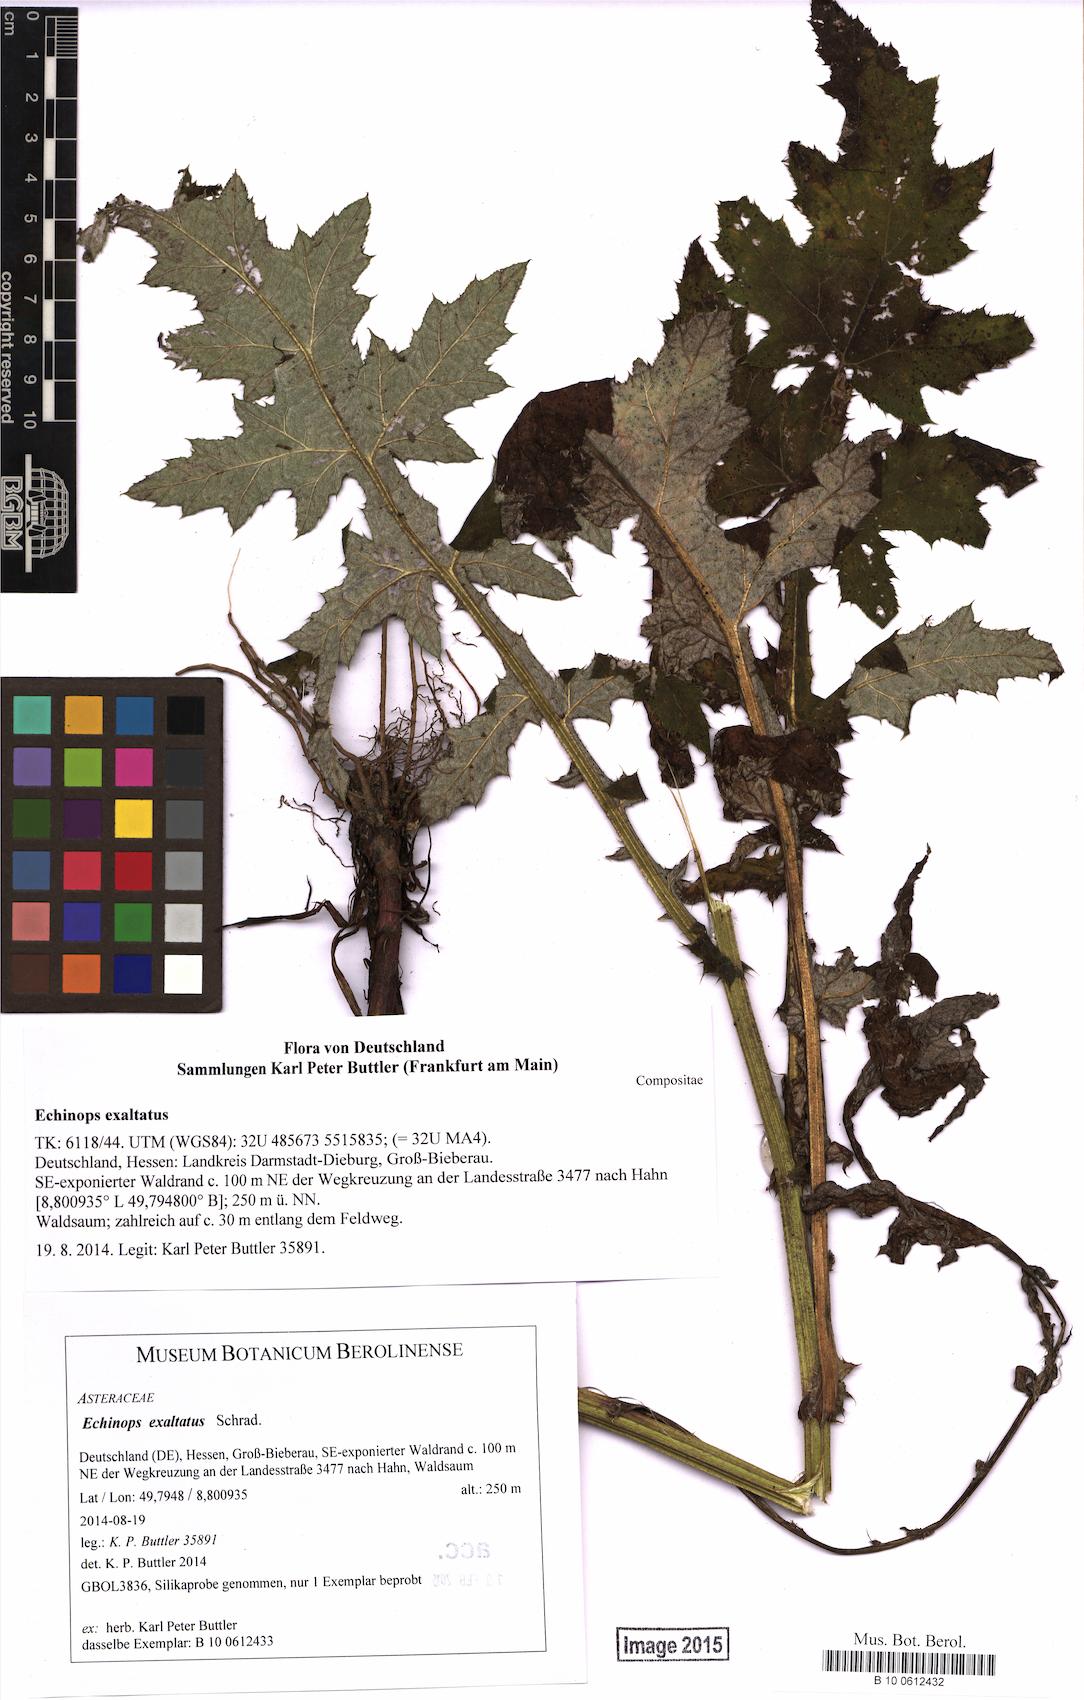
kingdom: Plantae
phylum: Tracheophyta
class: Magnoliopsida
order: Asterales
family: Asteraceae
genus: Echinops
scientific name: Echinops exaltatus
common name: Globe-thistle
